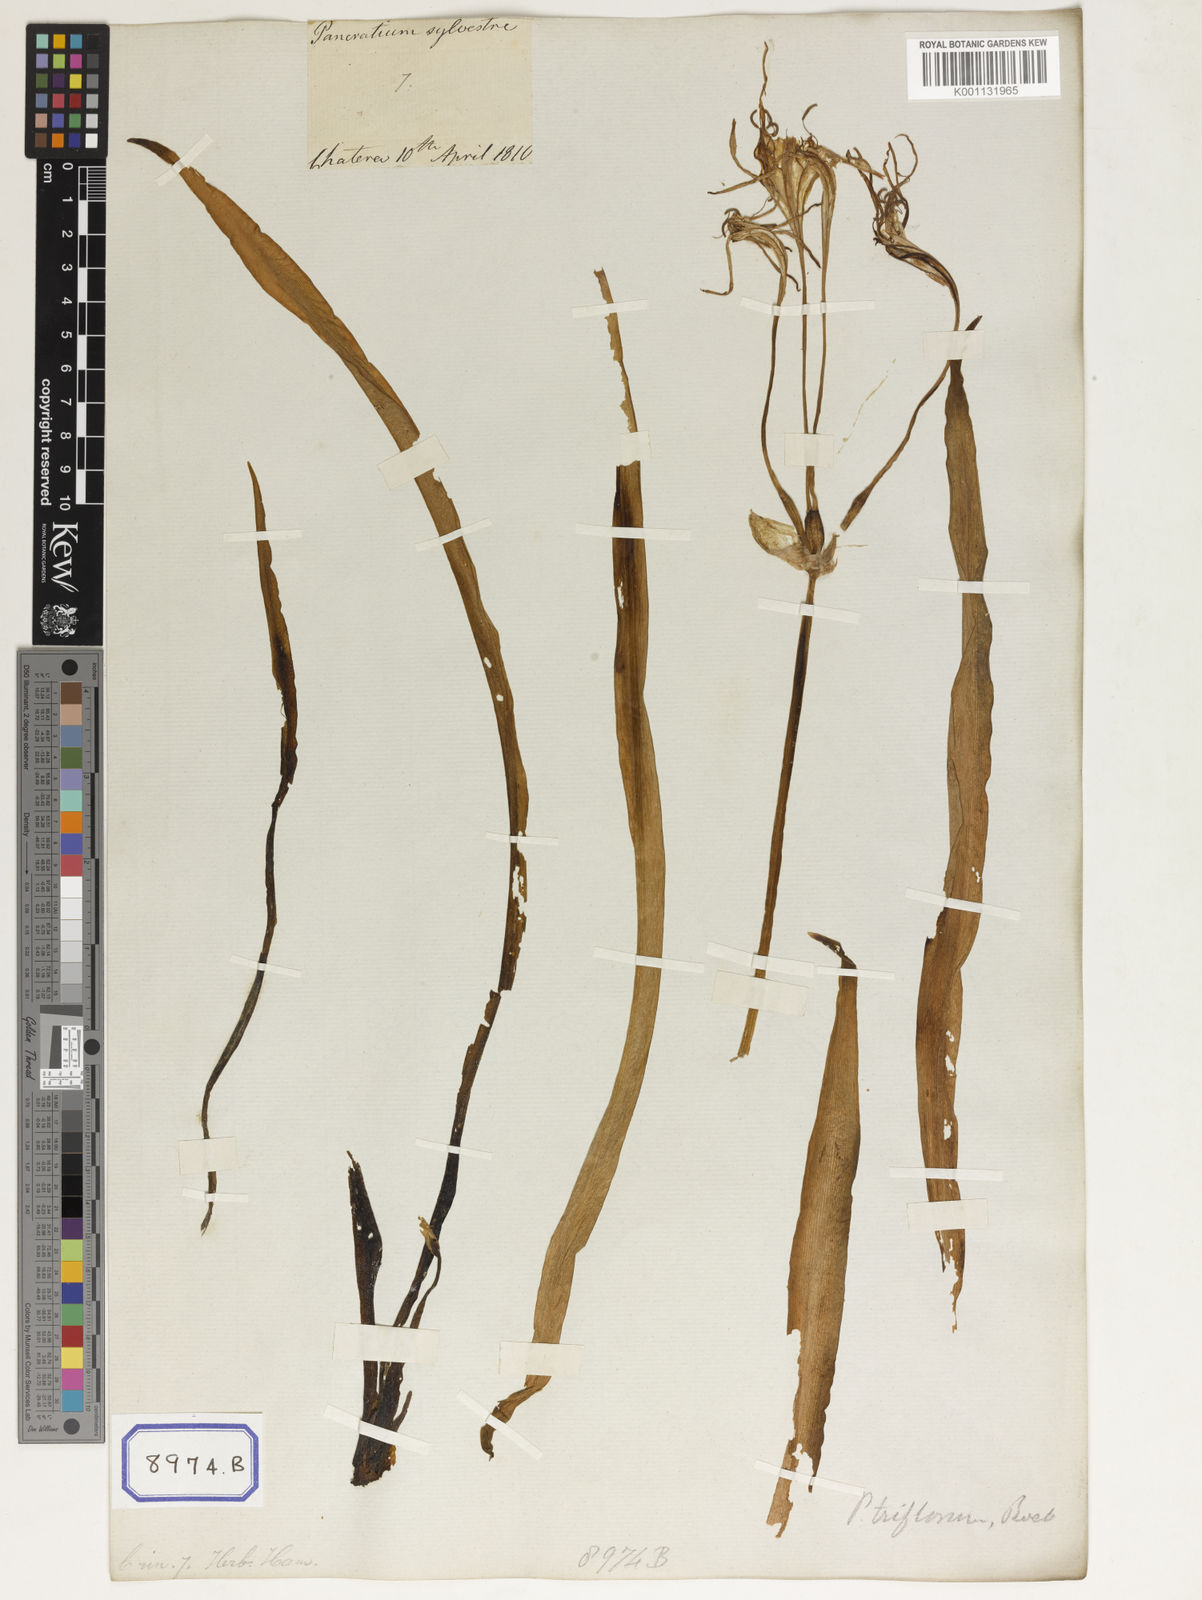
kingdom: Plantae
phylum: Tracheophyta
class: Liliopsida
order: Asparagales
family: Amaryllidaceae
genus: Pancratium
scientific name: Pancratium verecundum
